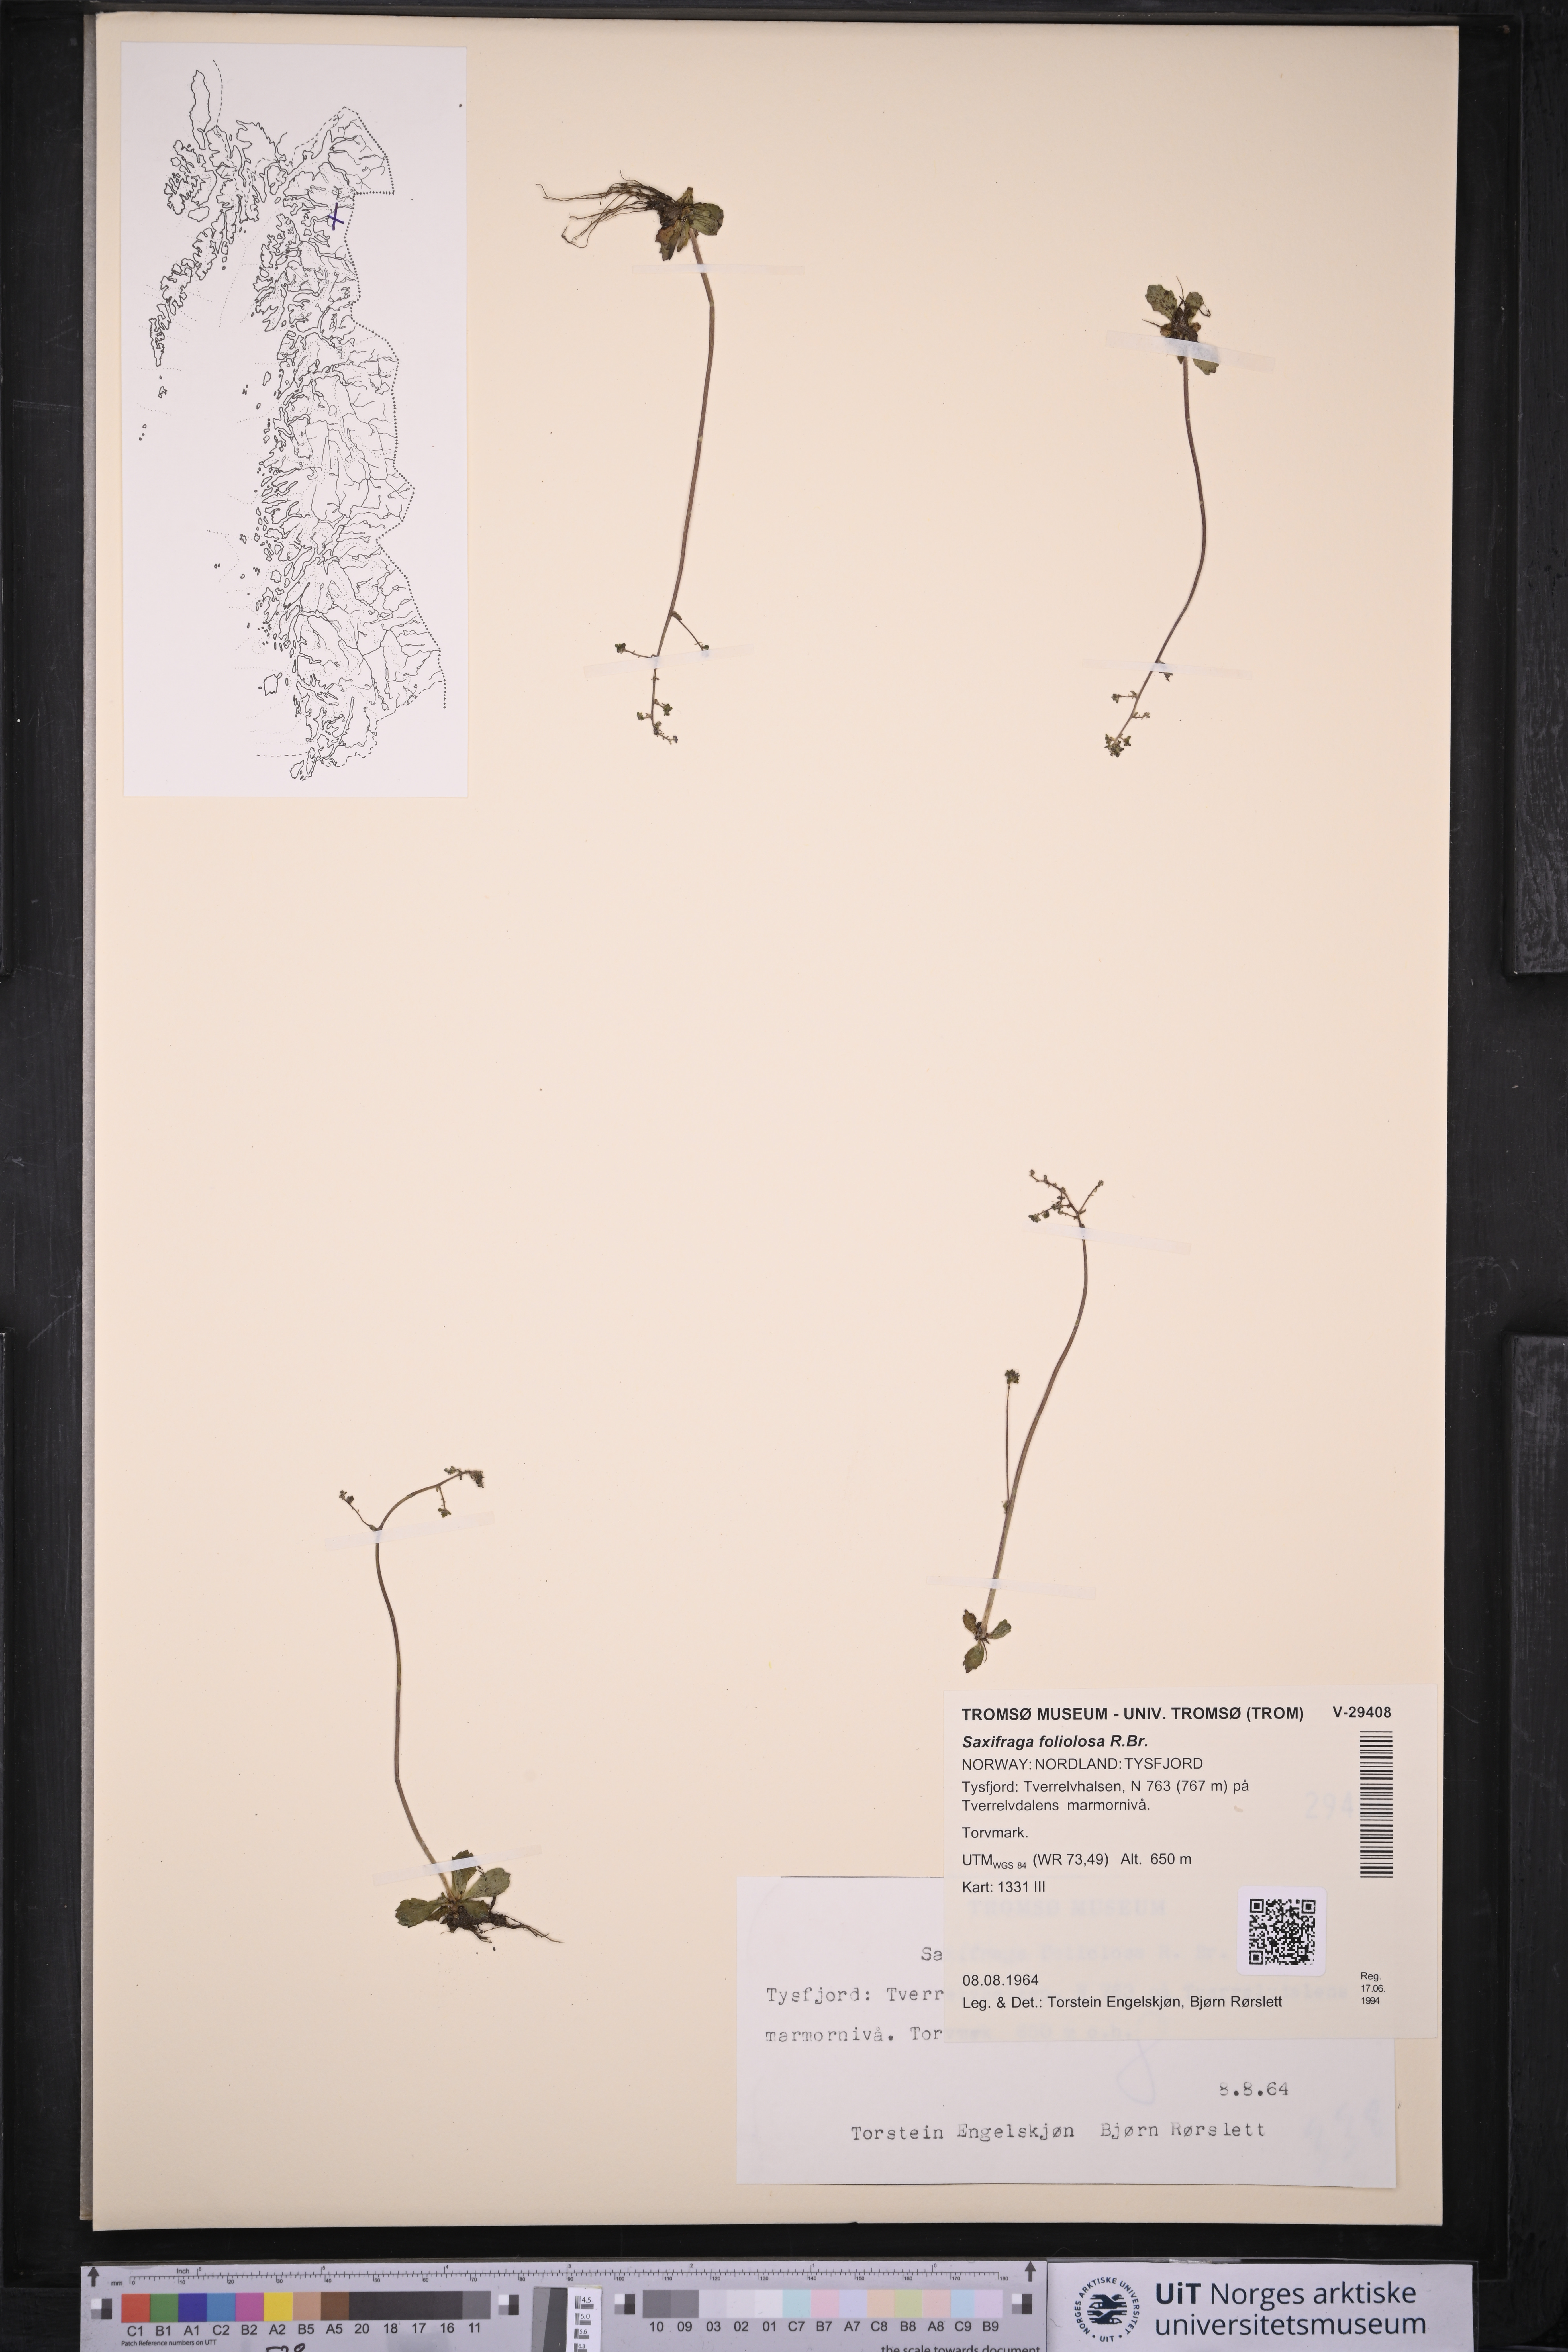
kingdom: Plantae
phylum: Tracheophyta
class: Magnoliopsida
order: Saxifragales
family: Saxifragaceae
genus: Micranthes
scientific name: Micranthes foliolosa
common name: Leafystem saxifrage
